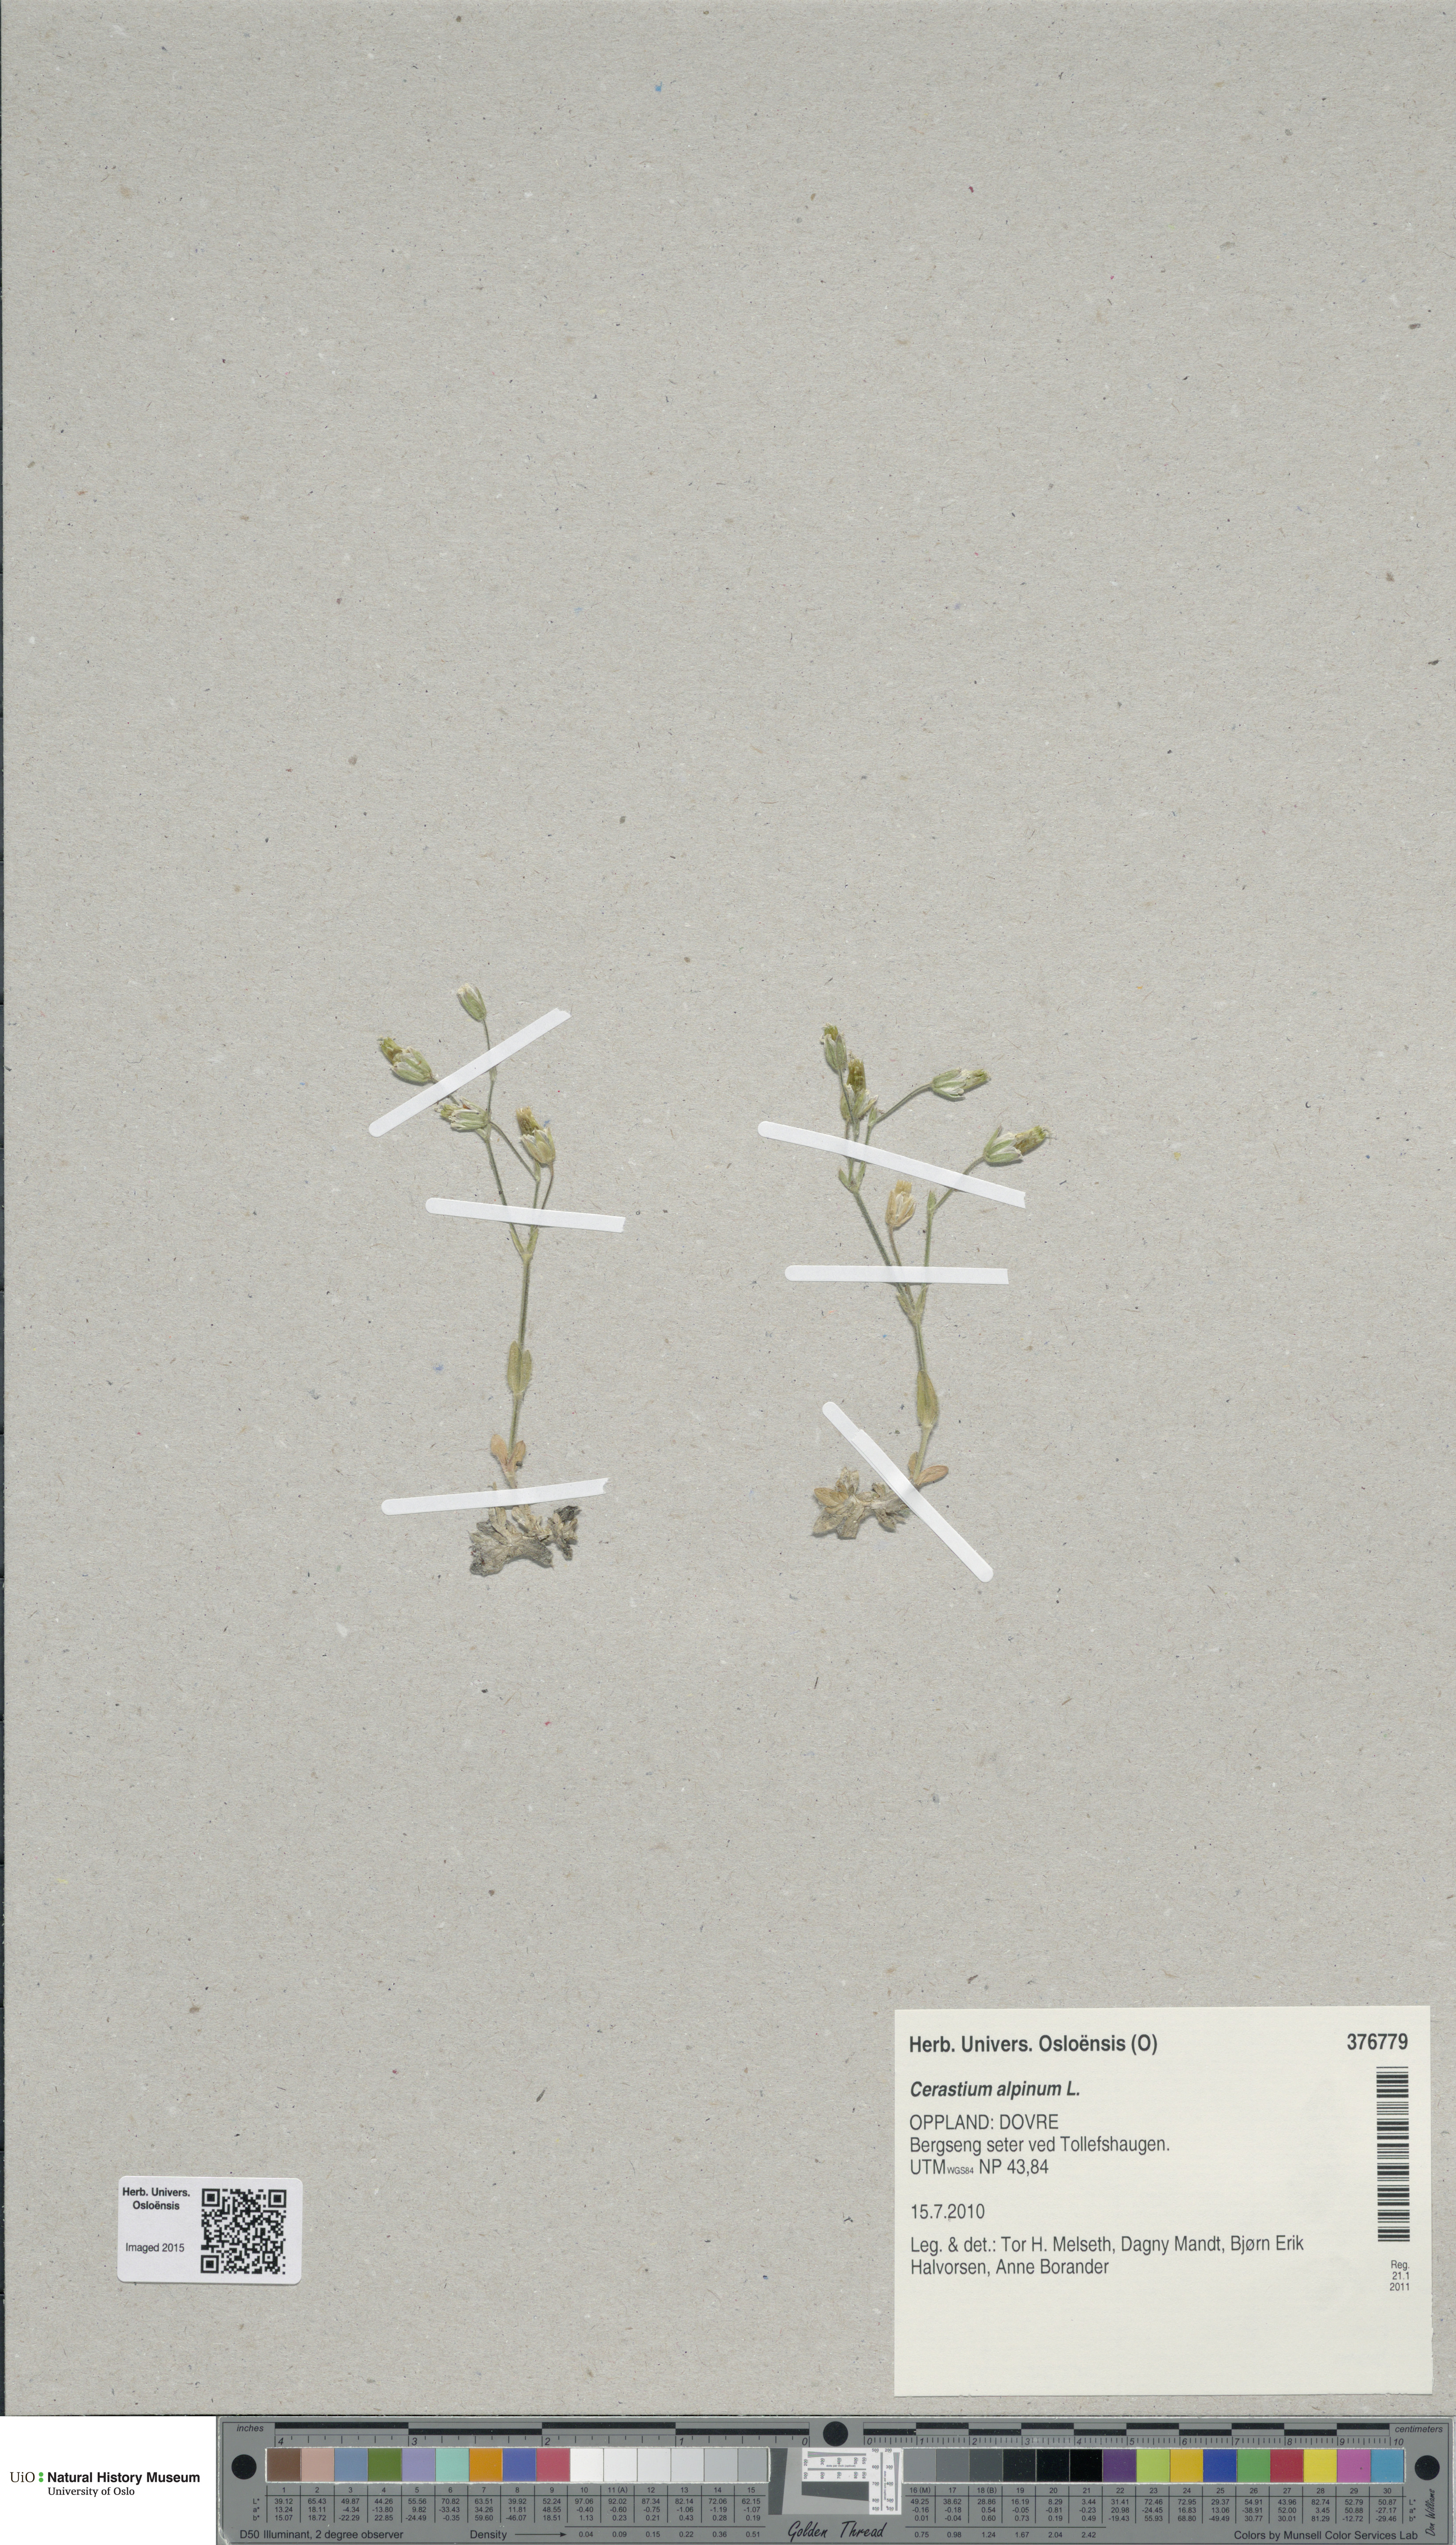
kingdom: Plantae
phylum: Tracheophyta
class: Magnoliopsida
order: Caryophyllales
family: Caryophyllaceae
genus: Cerastium
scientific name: Cerastium alpinum
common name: Alpine mouse-ear
